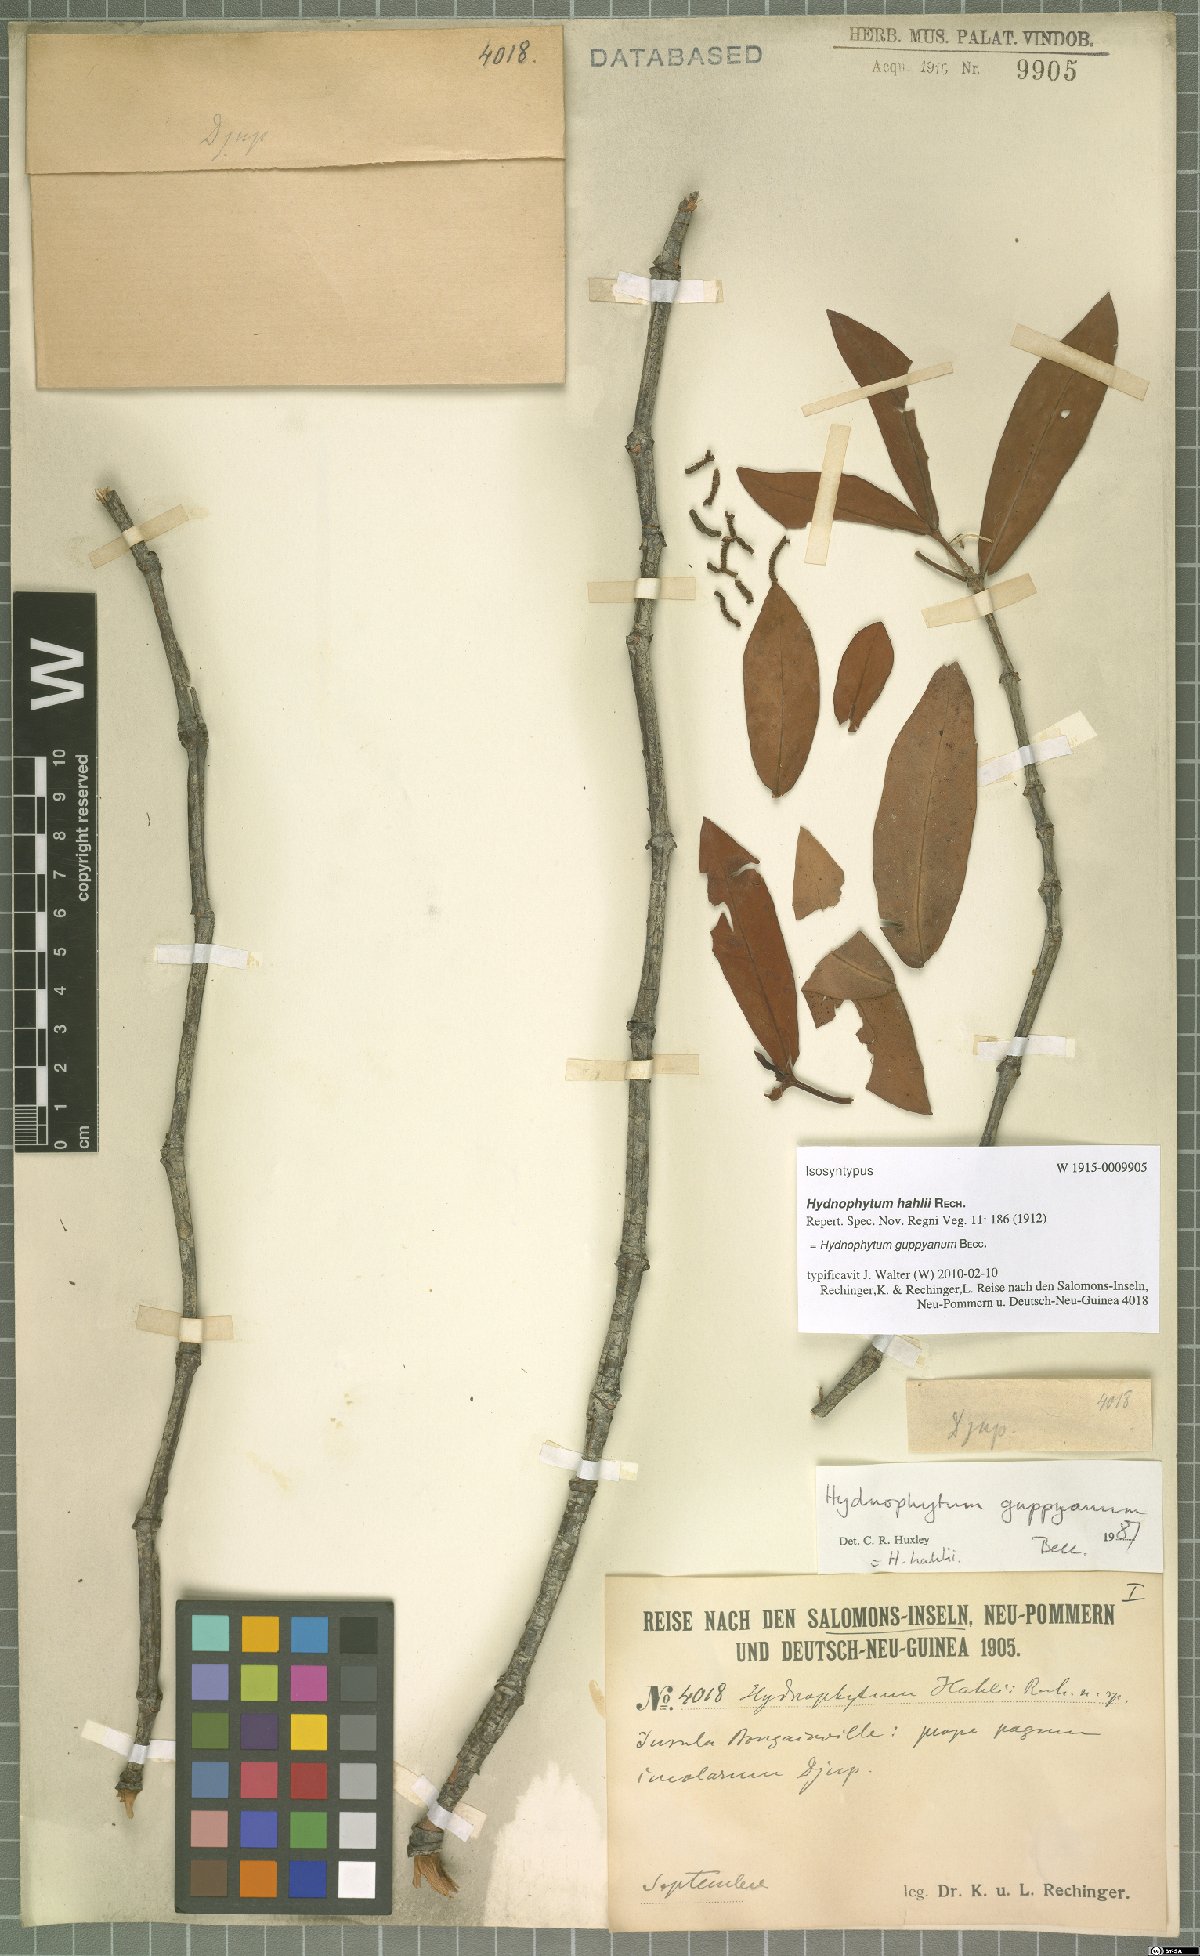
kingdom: Plantae
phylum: Tracheophyta
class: Magnoliopsida
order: Gentianales
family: Rubiaceae
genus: Squamellaria
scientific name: Squamellaria guppyana
